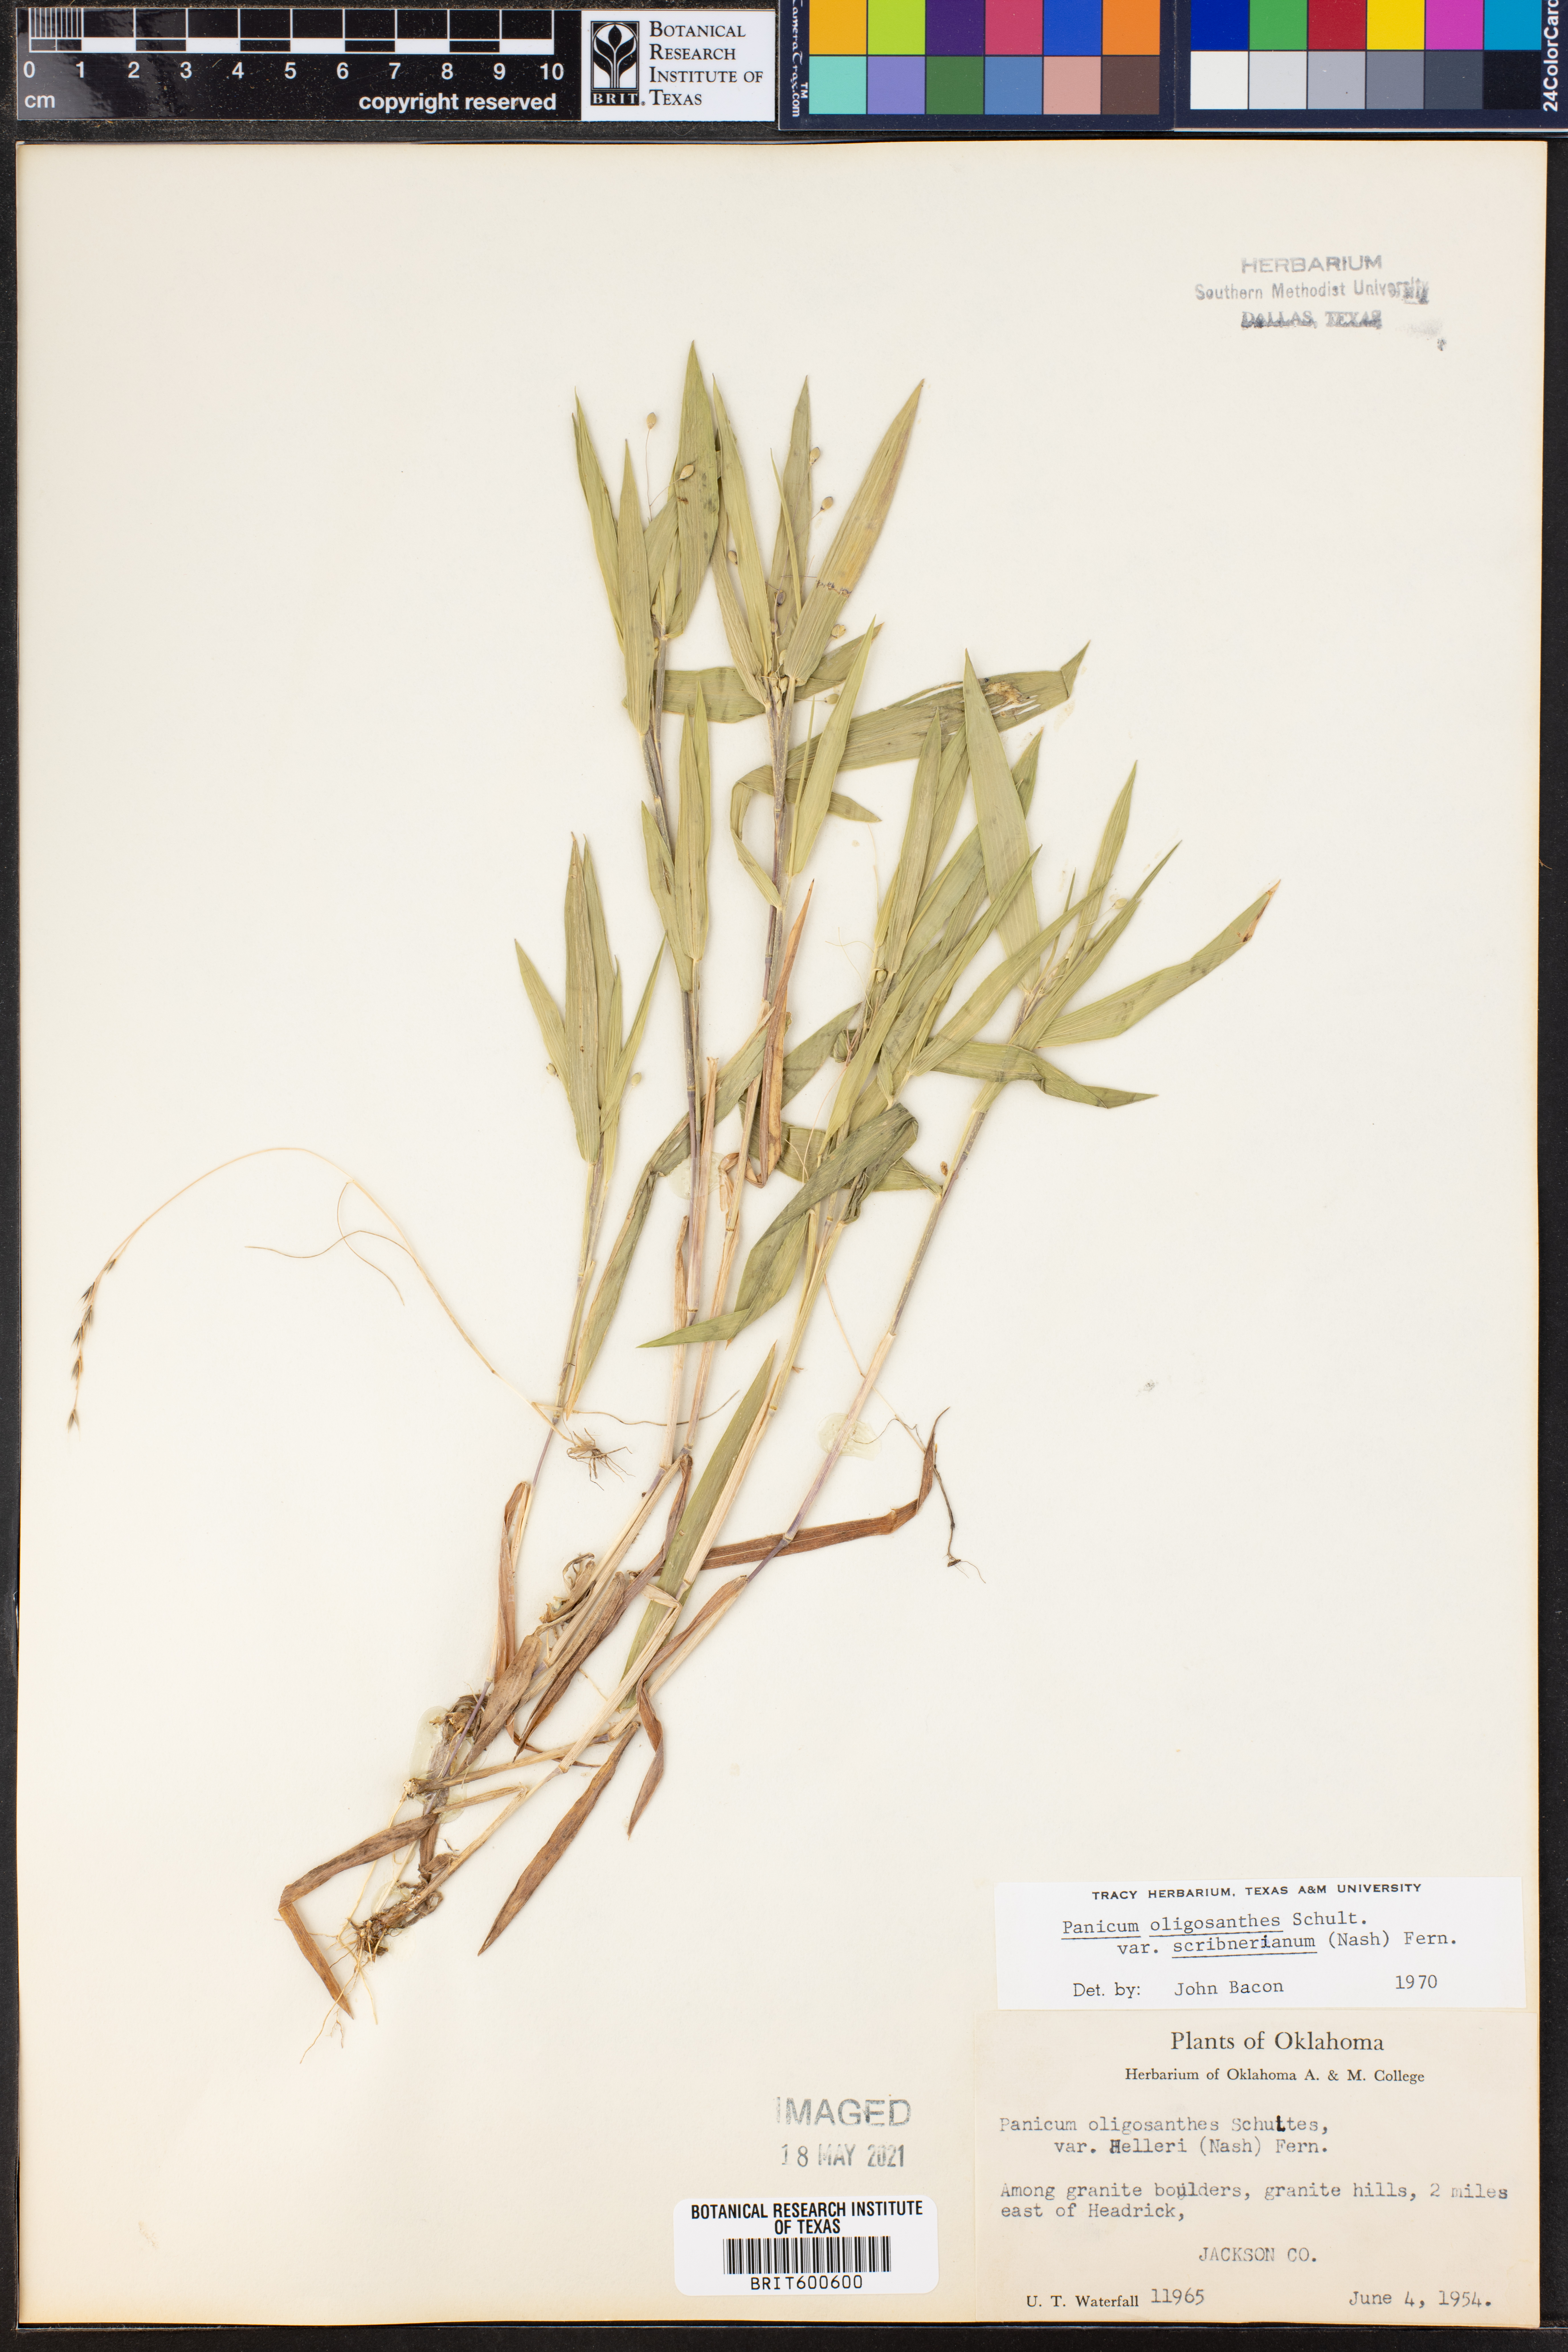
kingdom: Plantae
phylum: Tracheophyta
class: Liliopsida
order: Poales
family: Poaceae
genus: Dichanthelium
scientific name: Dichanthelium scribnerianum
